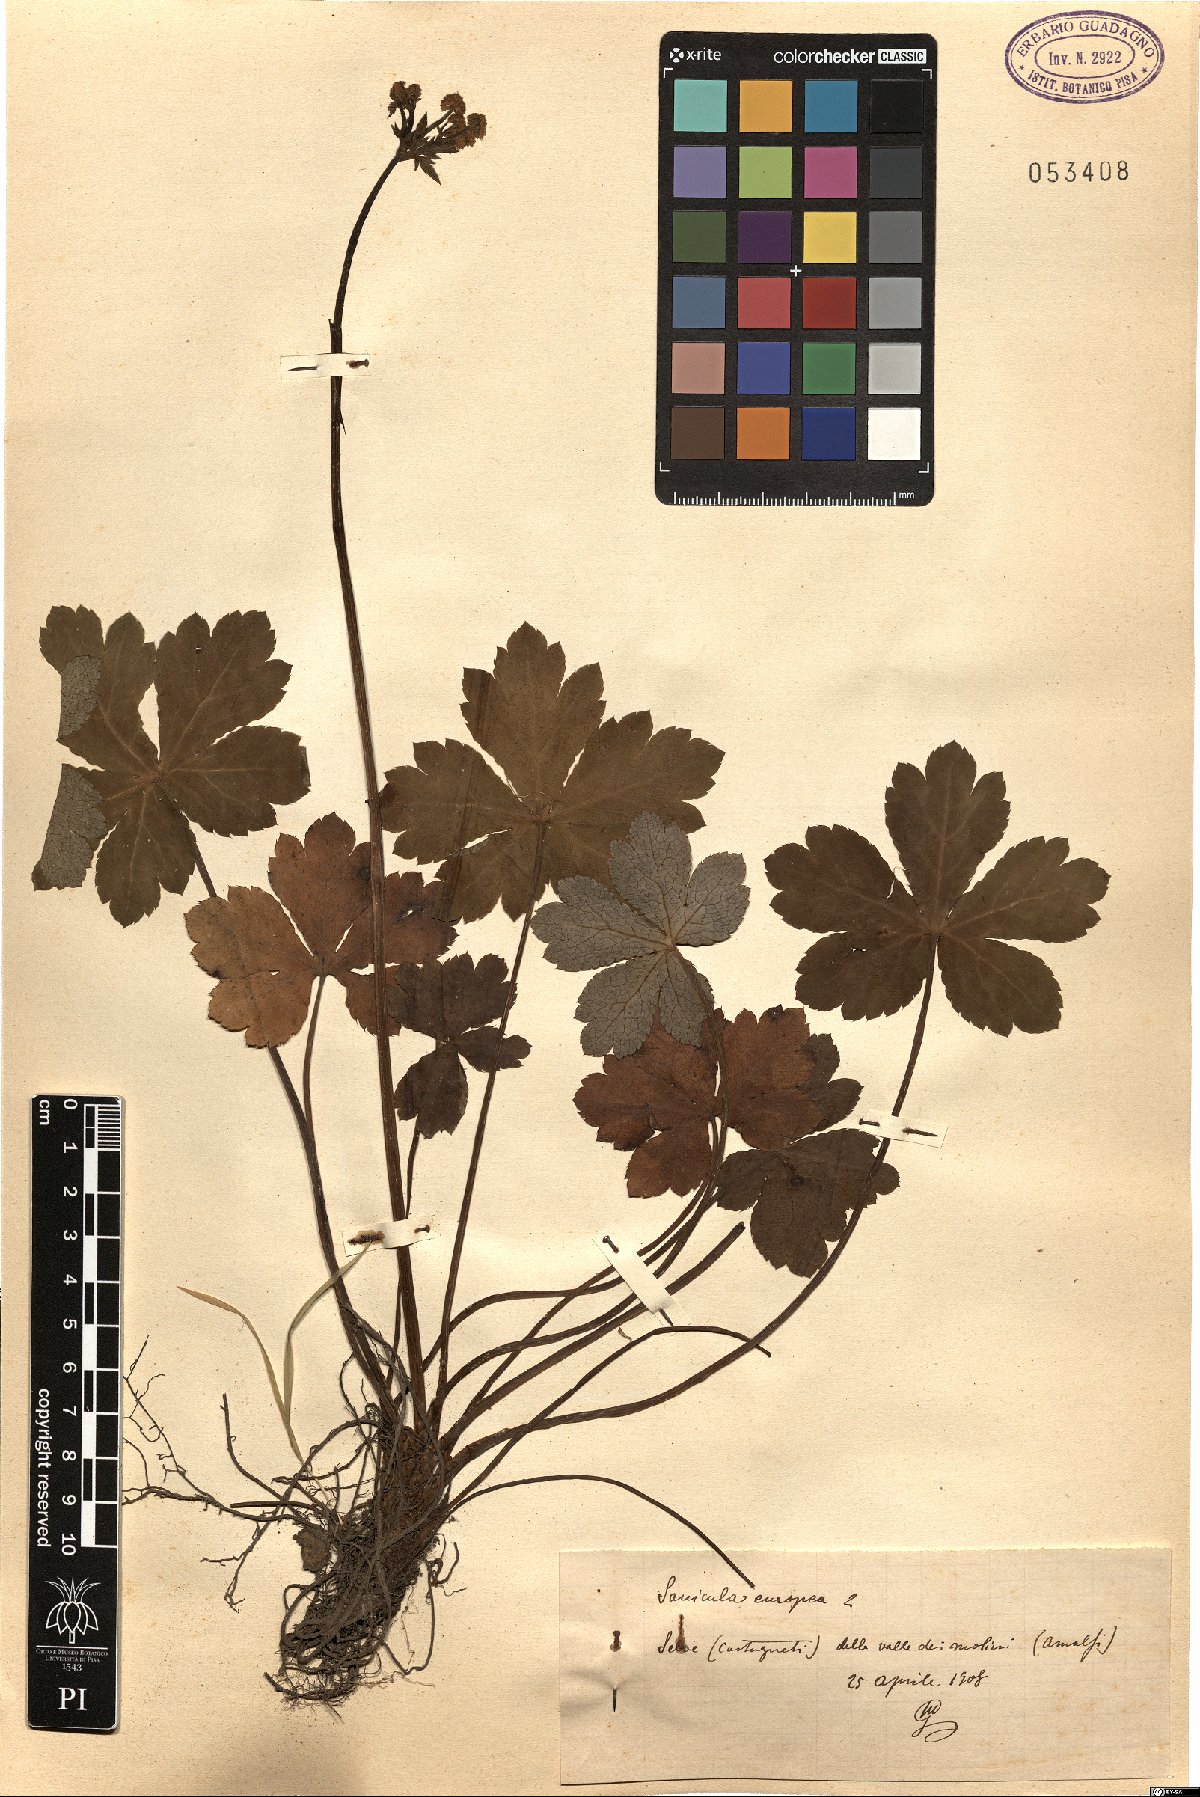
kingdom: Plantae
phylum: Tracheophyta
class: Magnoliopsida
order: Apiales
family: Apiaceae
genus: Sanicula
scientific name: Sanicula europaea
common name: Sanicle
